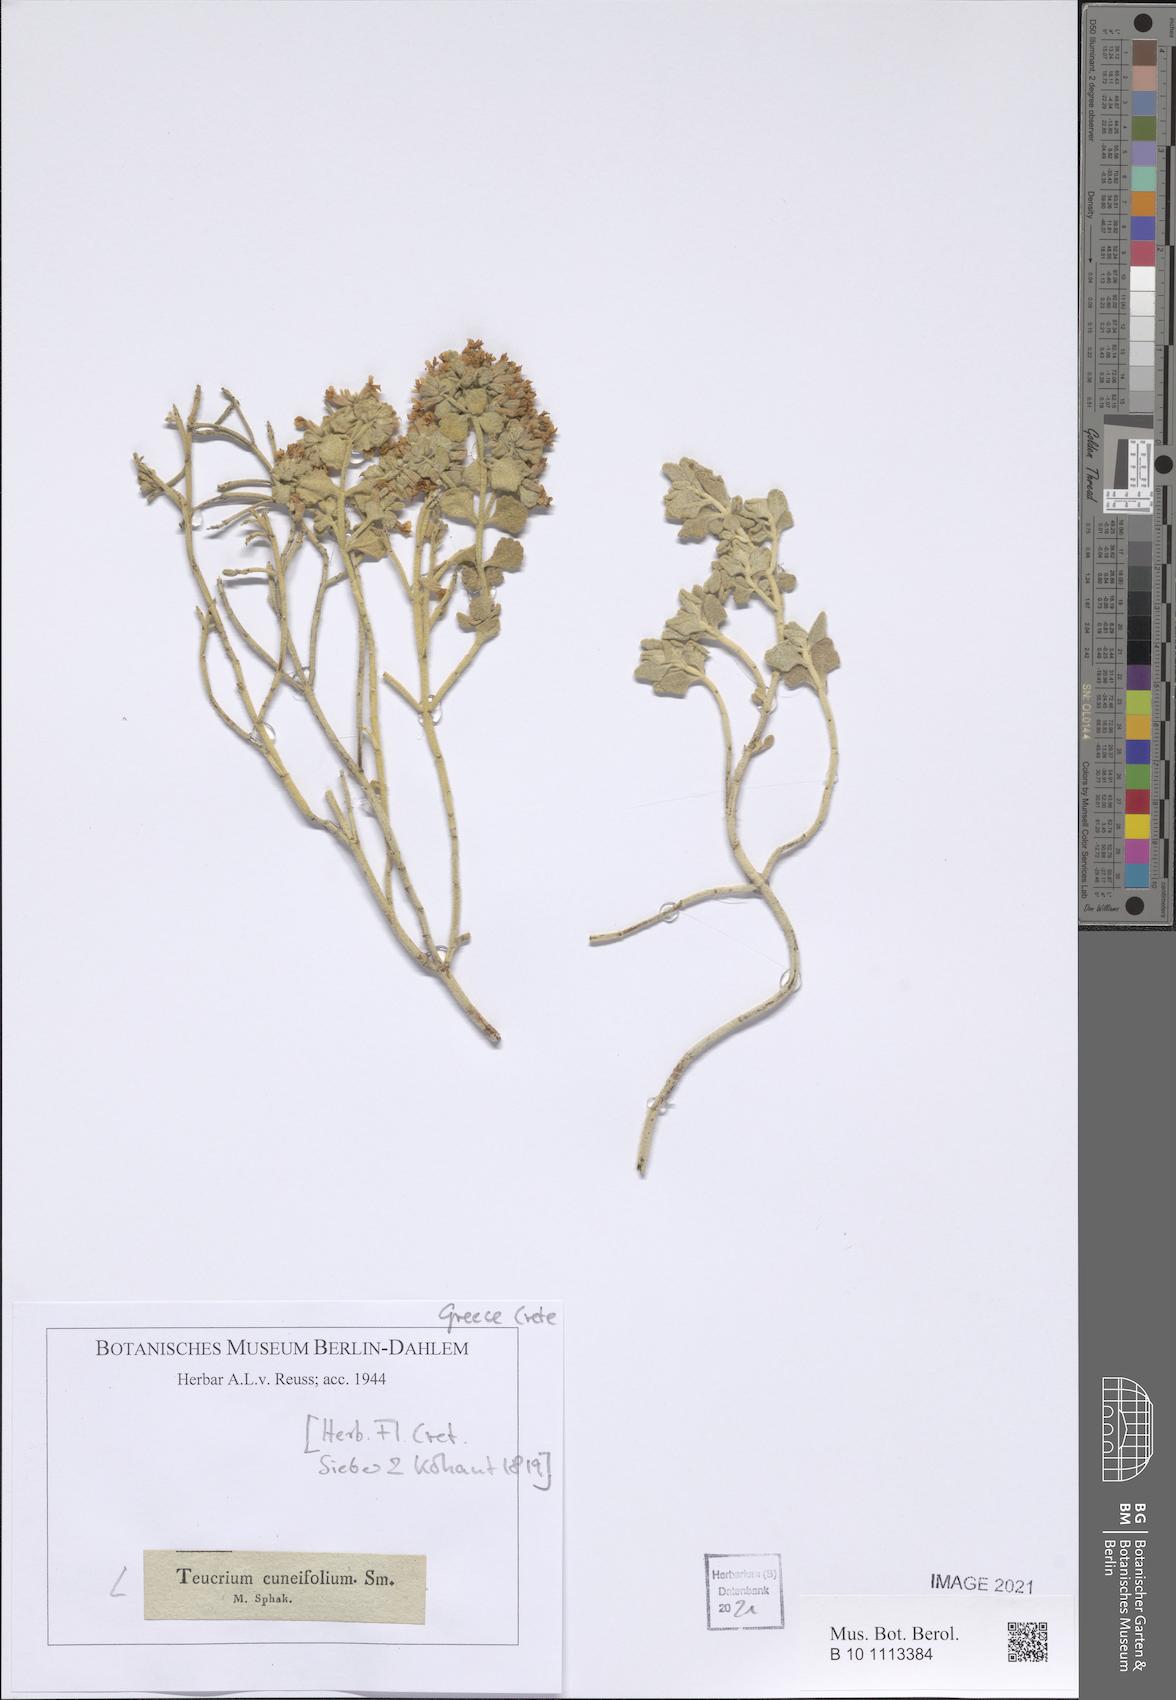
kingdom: Plantae
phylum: Tracheophyta
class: Magnoliopsida
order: Lamiales
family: Lamiaceae
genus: Teucrium
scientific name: Teucrium cuneifolium
